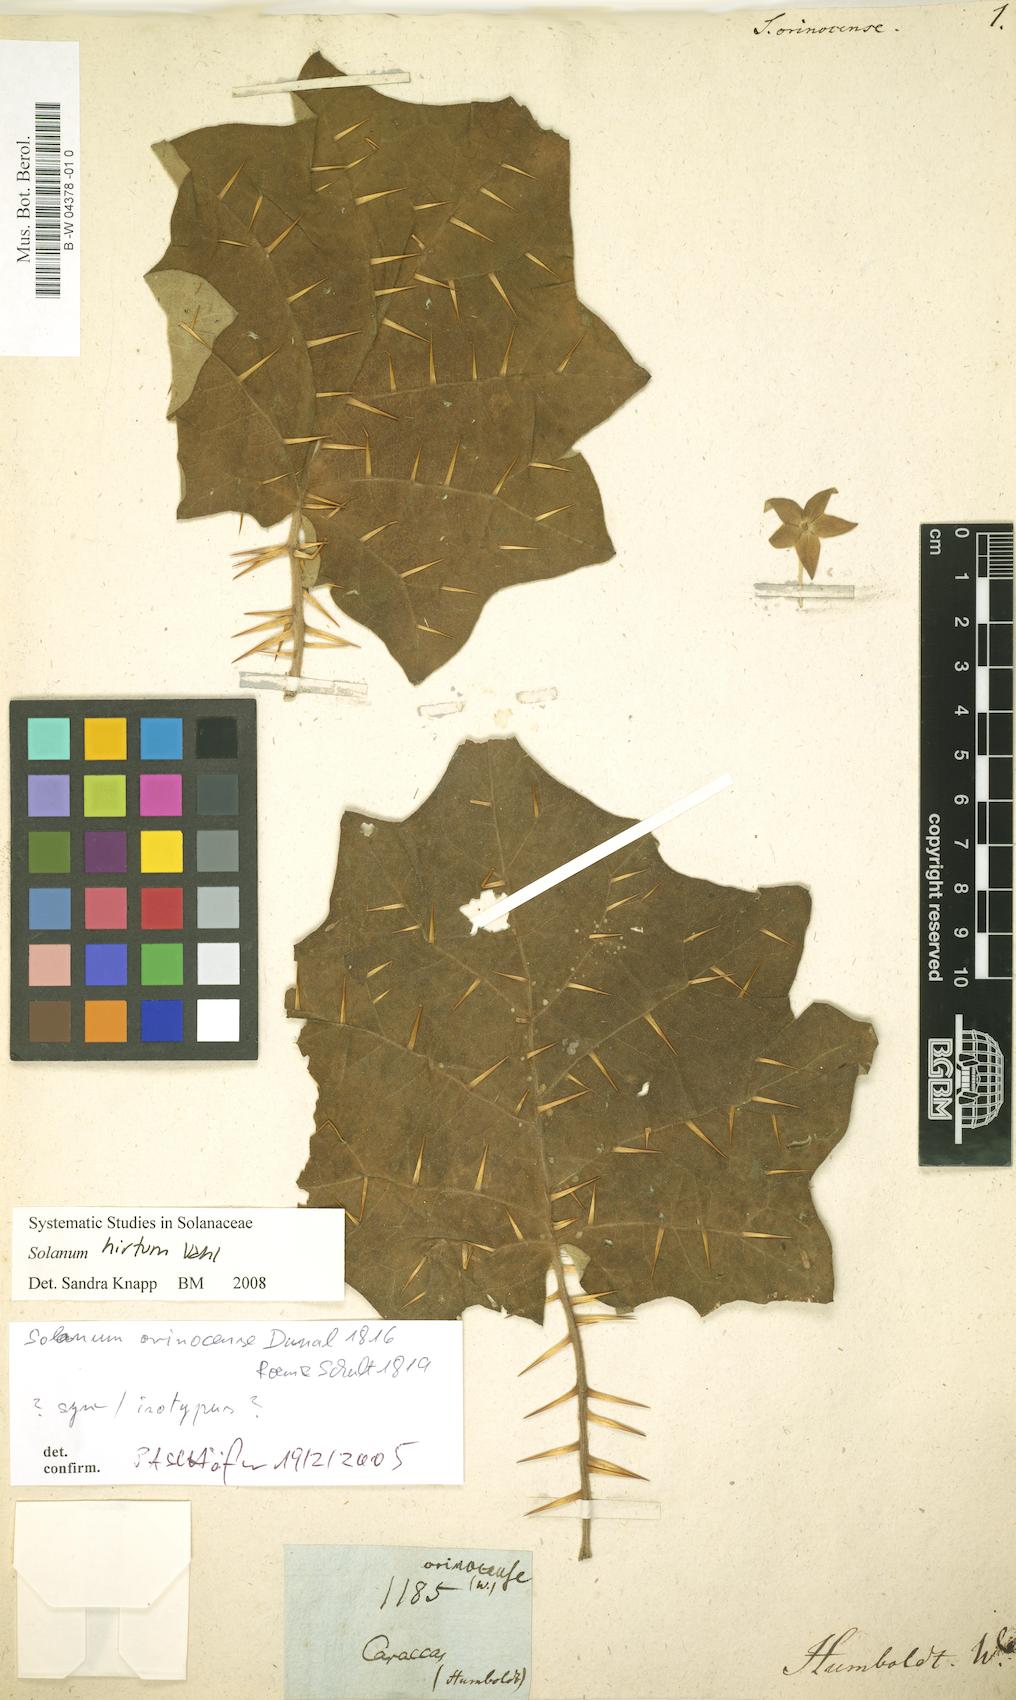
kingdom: Plantae
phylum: Tracheophyta
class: Magnoliopsida
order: Solanales
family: Solanaceae
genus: Solanum
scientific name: Solanum hirtum
